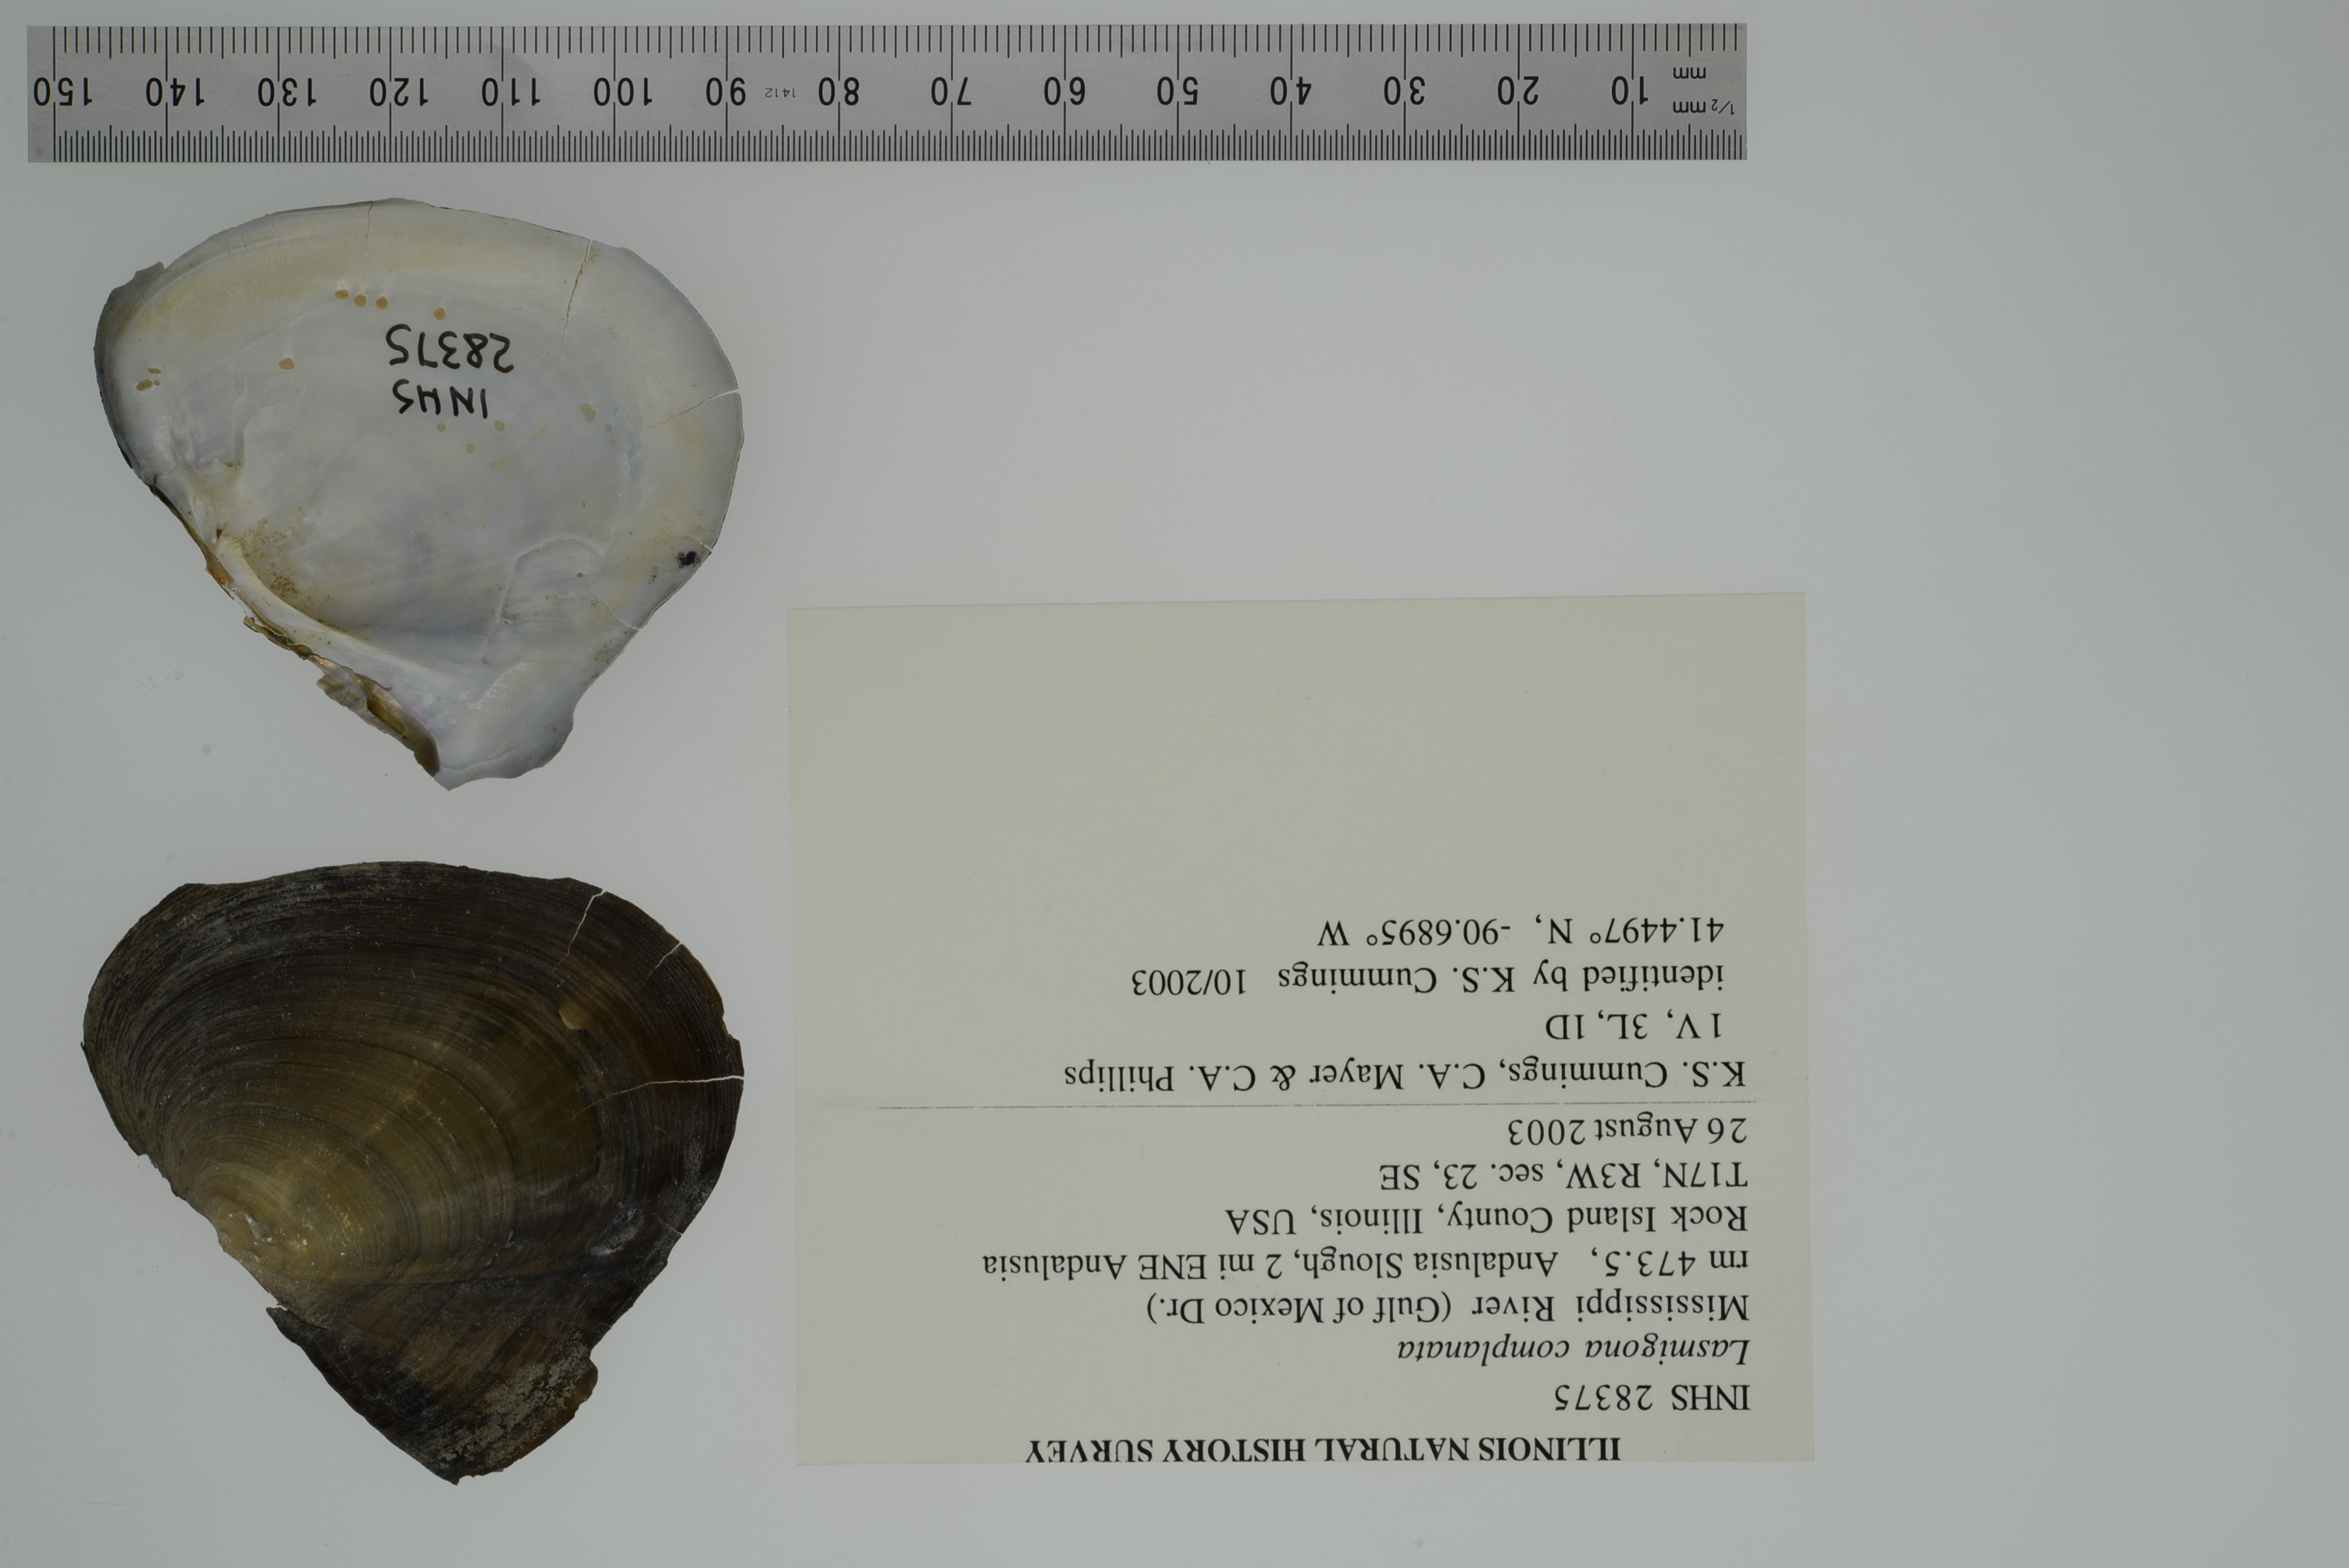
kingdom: Animalia
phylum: Mollusca
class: Bivalvia
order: Unionida
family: Unionidae
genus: Lasmigona
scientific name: Lasmigona complanata
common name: White heelsplitter
